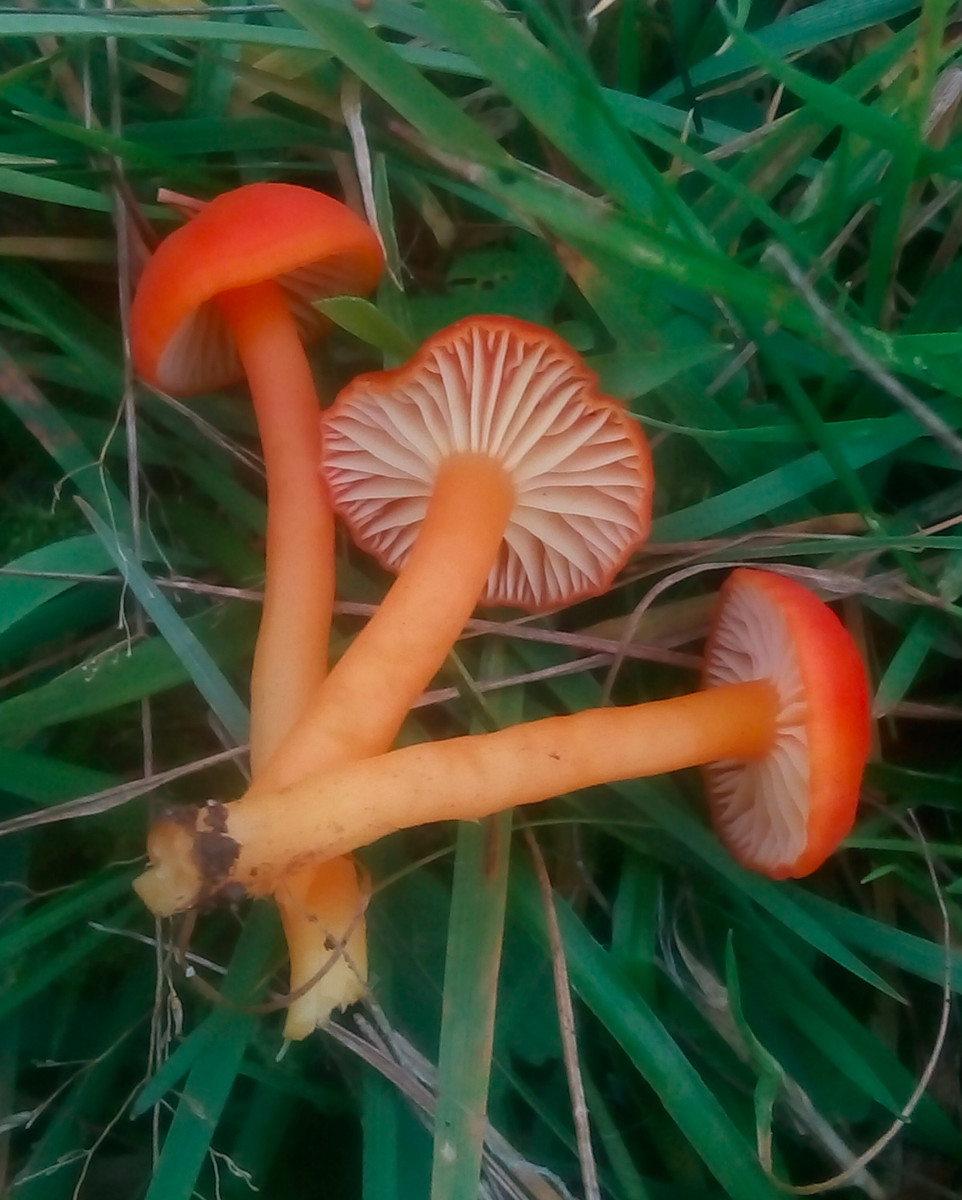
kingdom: Fungi
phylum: Basidiomycota
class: Agaricomycetes
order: Agaricales
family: Hygrophoraceae
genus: Hygrocybe
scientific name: Hygrocybe reidii
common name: honning-vokshat
